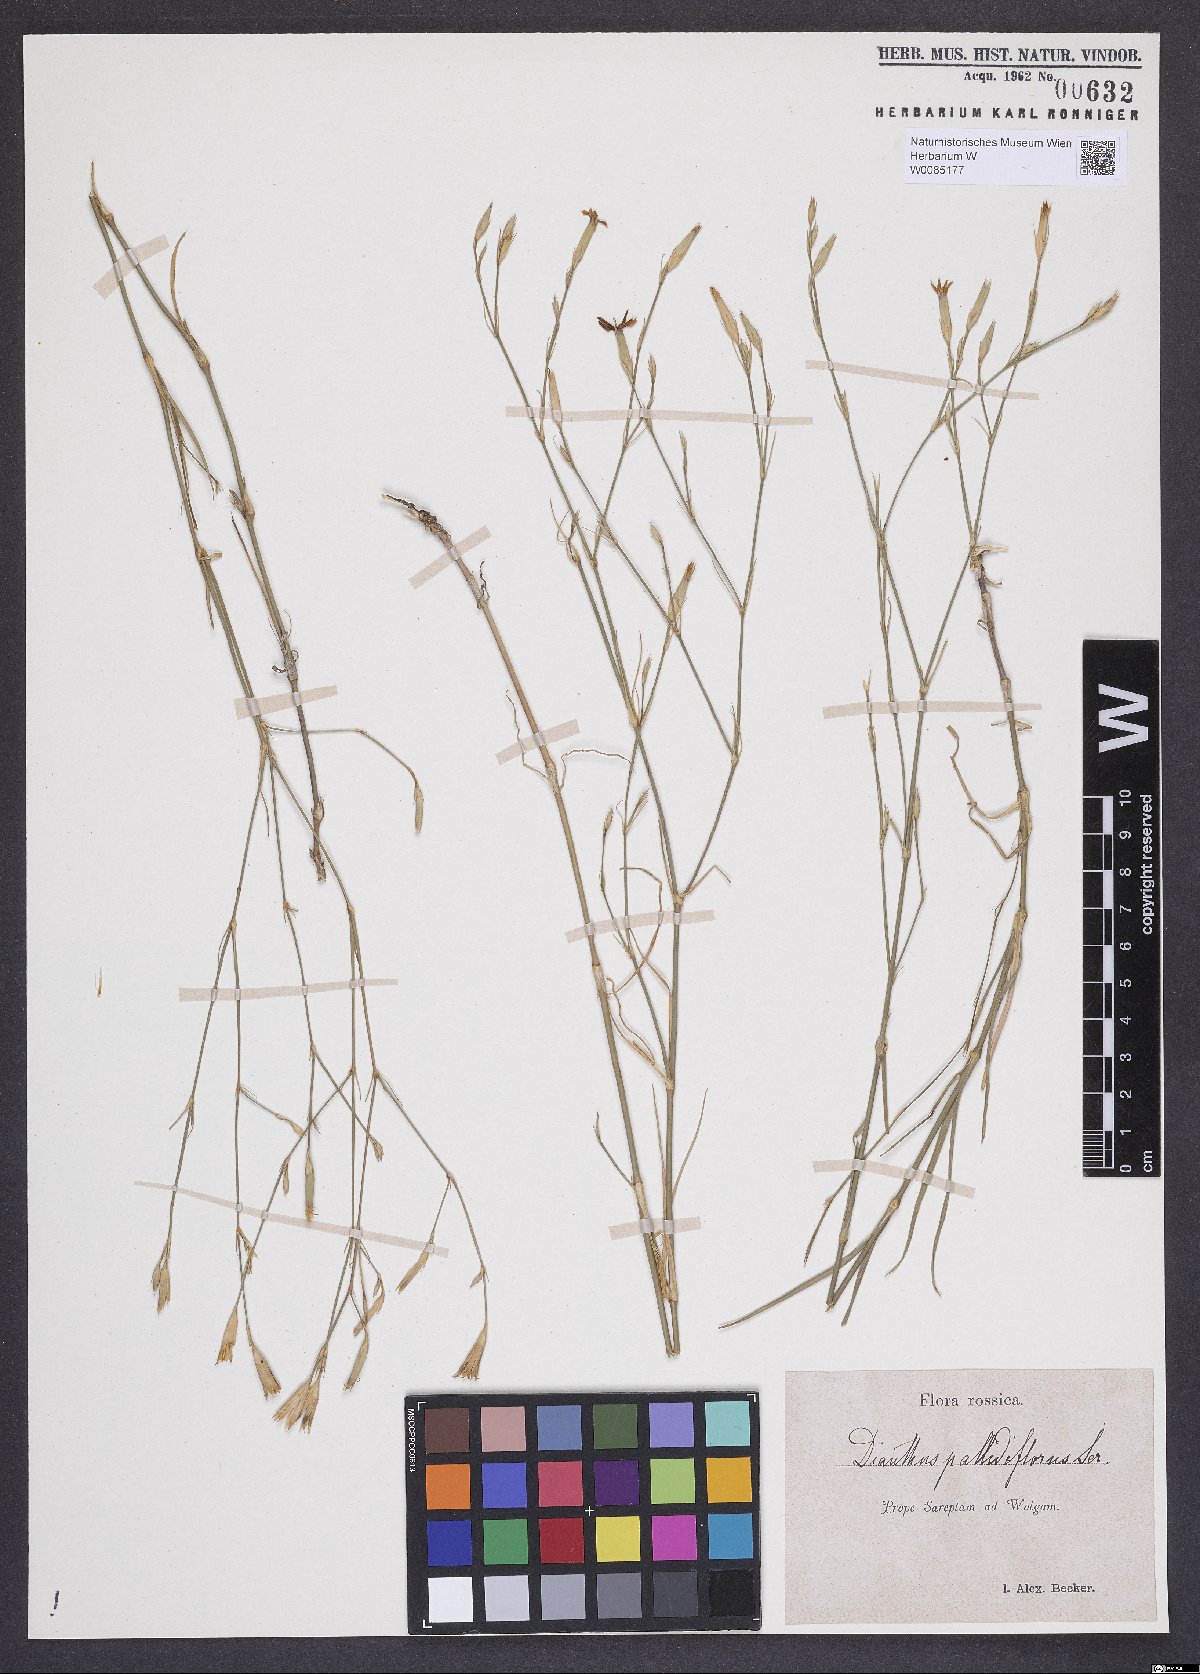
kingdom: Plantae
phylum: Tracheophyta
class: Magnoliopsida
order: Caryophyllales
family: Caryophyllaceae
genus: Dianthus
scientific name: Dianthus pallens
